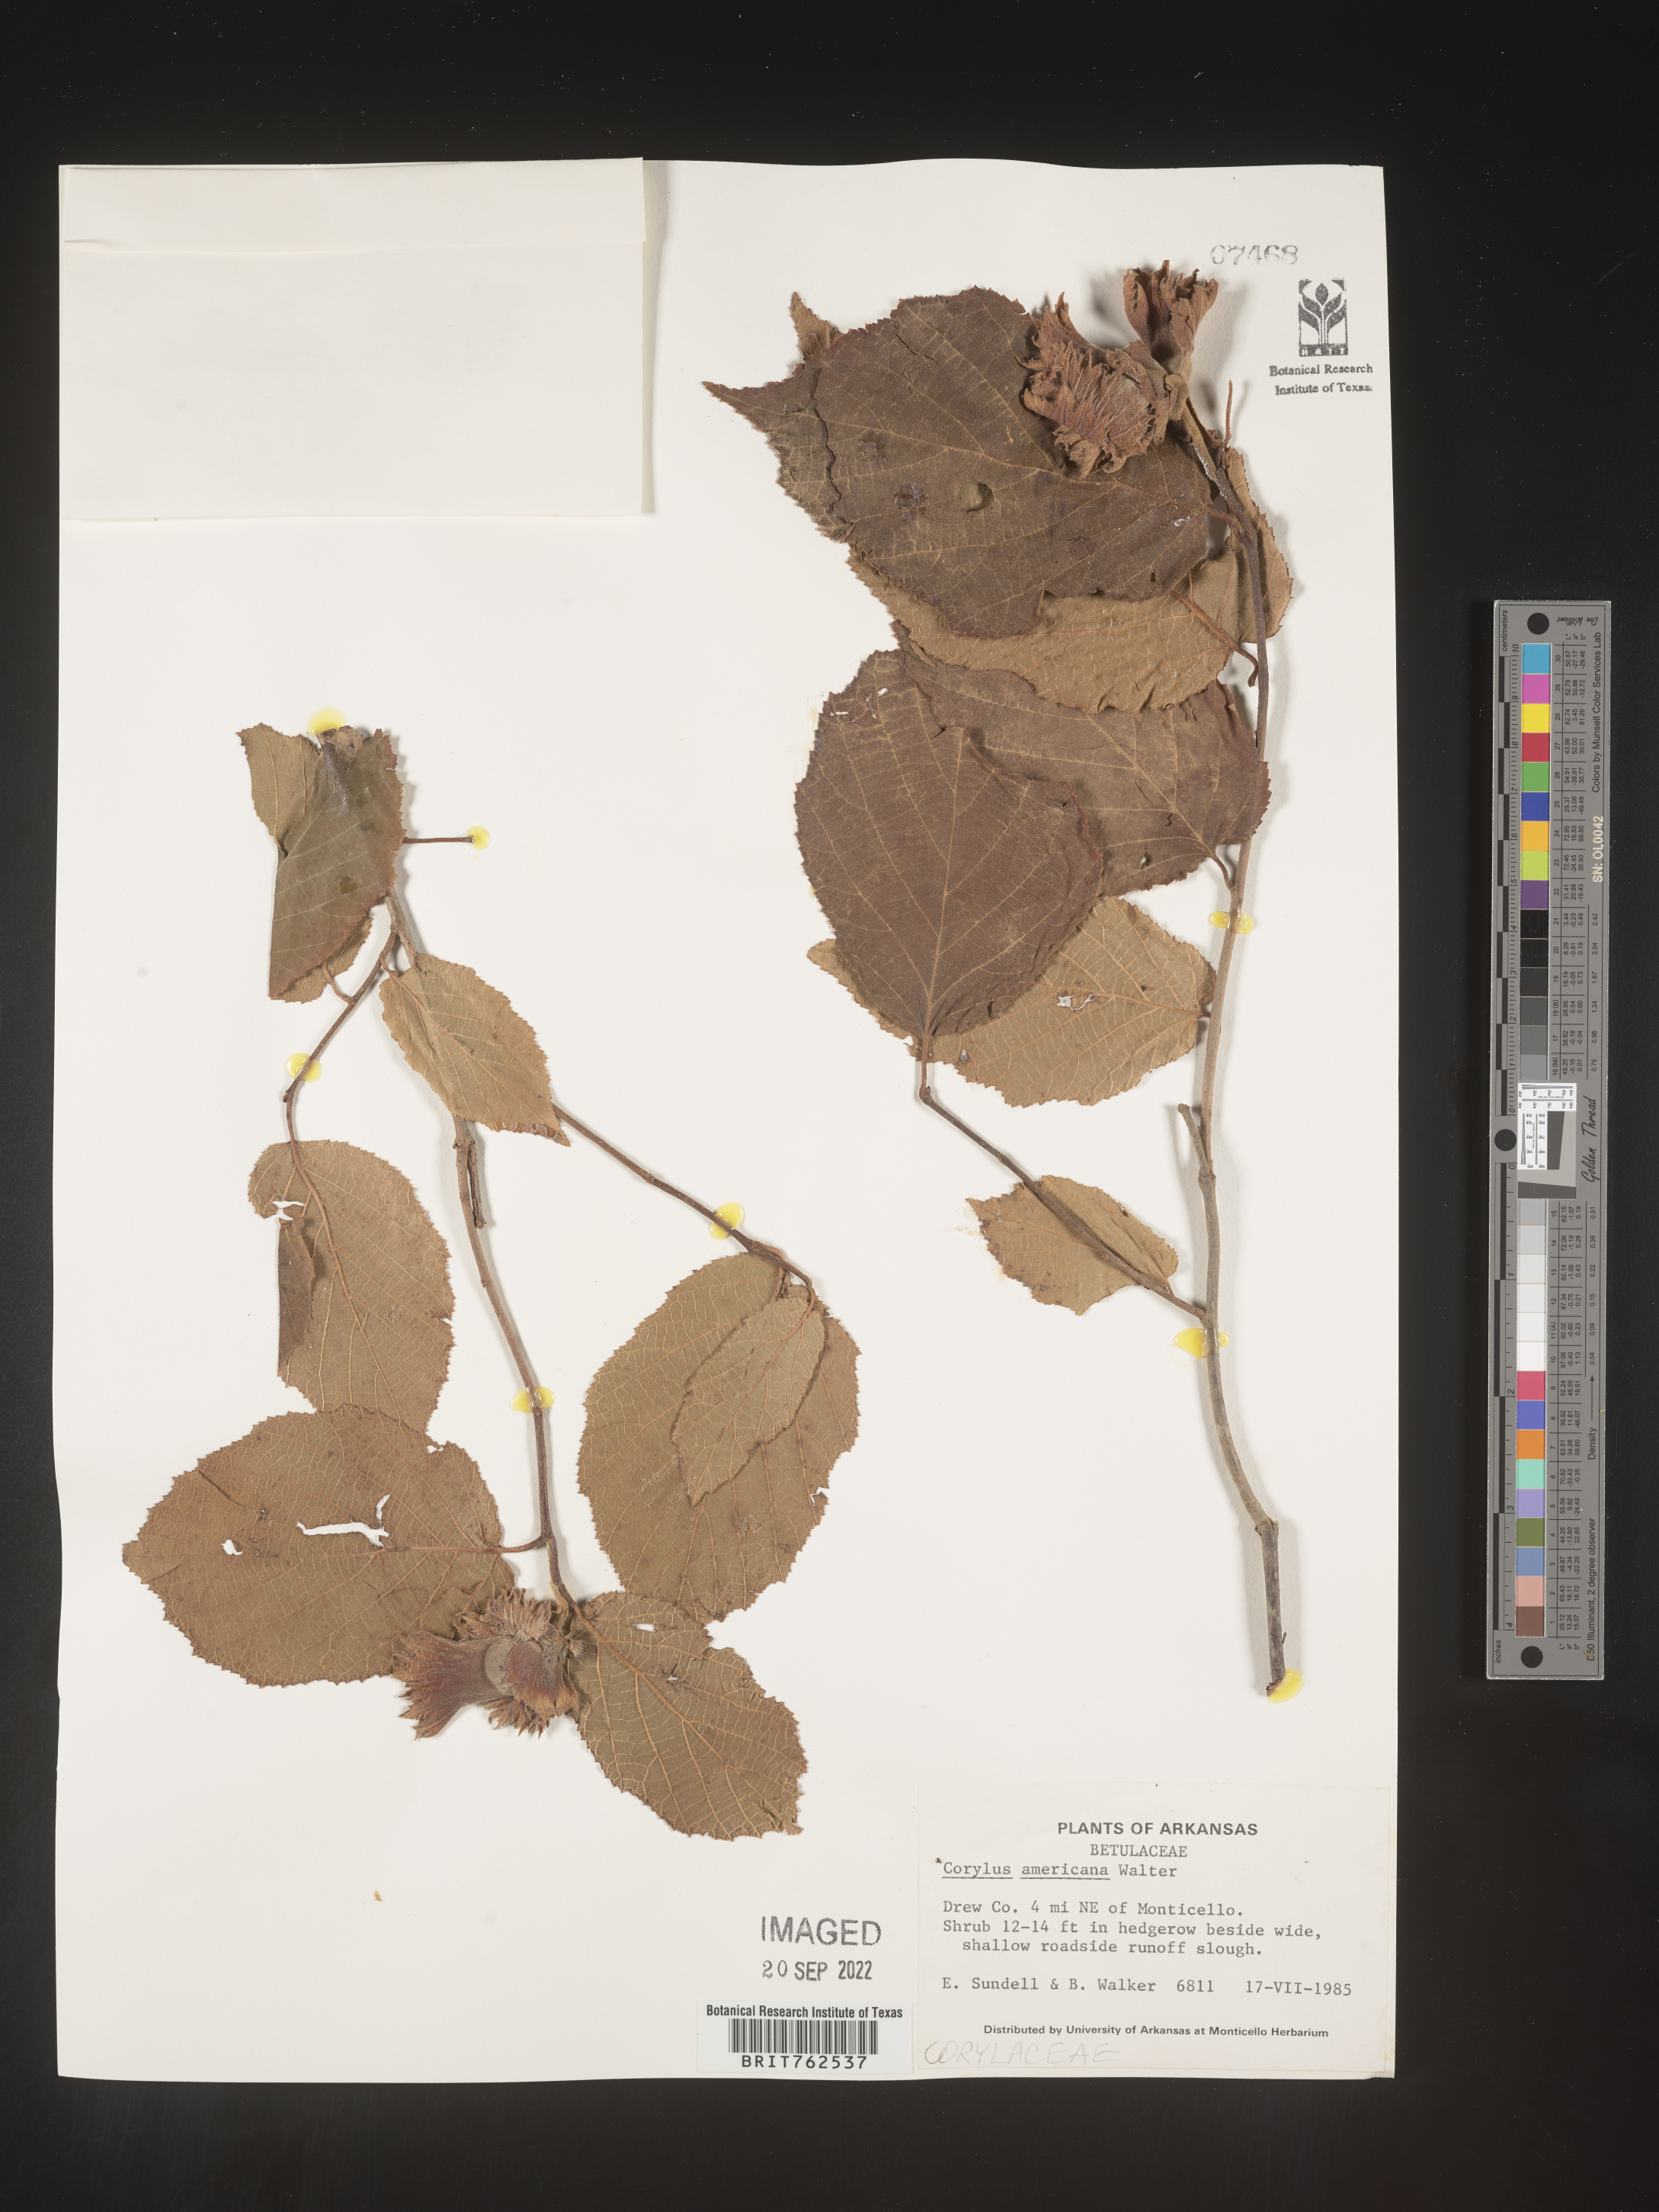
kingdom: Plantae
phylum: Tracheophyta
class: Magnoliopsida
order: Fagales
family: Betulaceae
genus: Corylus
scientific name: Corylus americana
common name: American hazel
